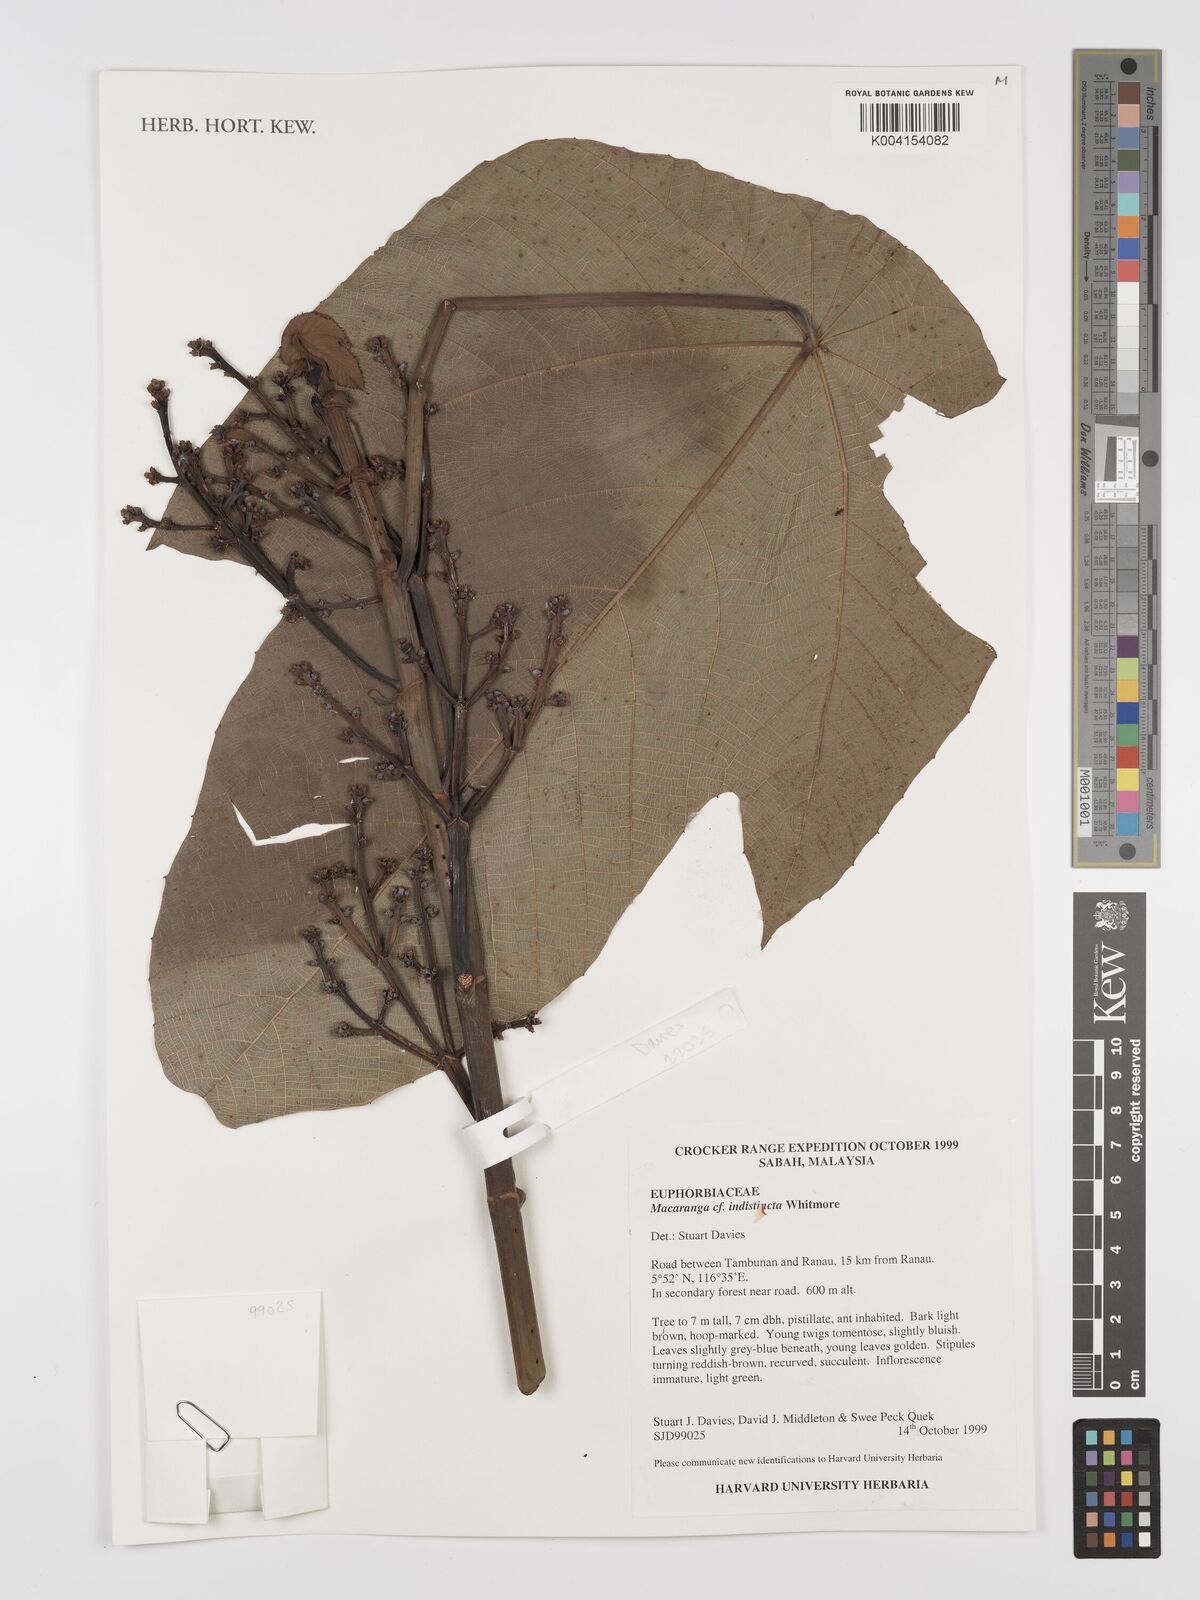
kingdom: Plantae
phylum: Tracheophyta
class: Magnoliopsida
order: Malpighiales
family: Euphorbiaceae
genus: Macaranga
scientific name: Macaranga indistincta
